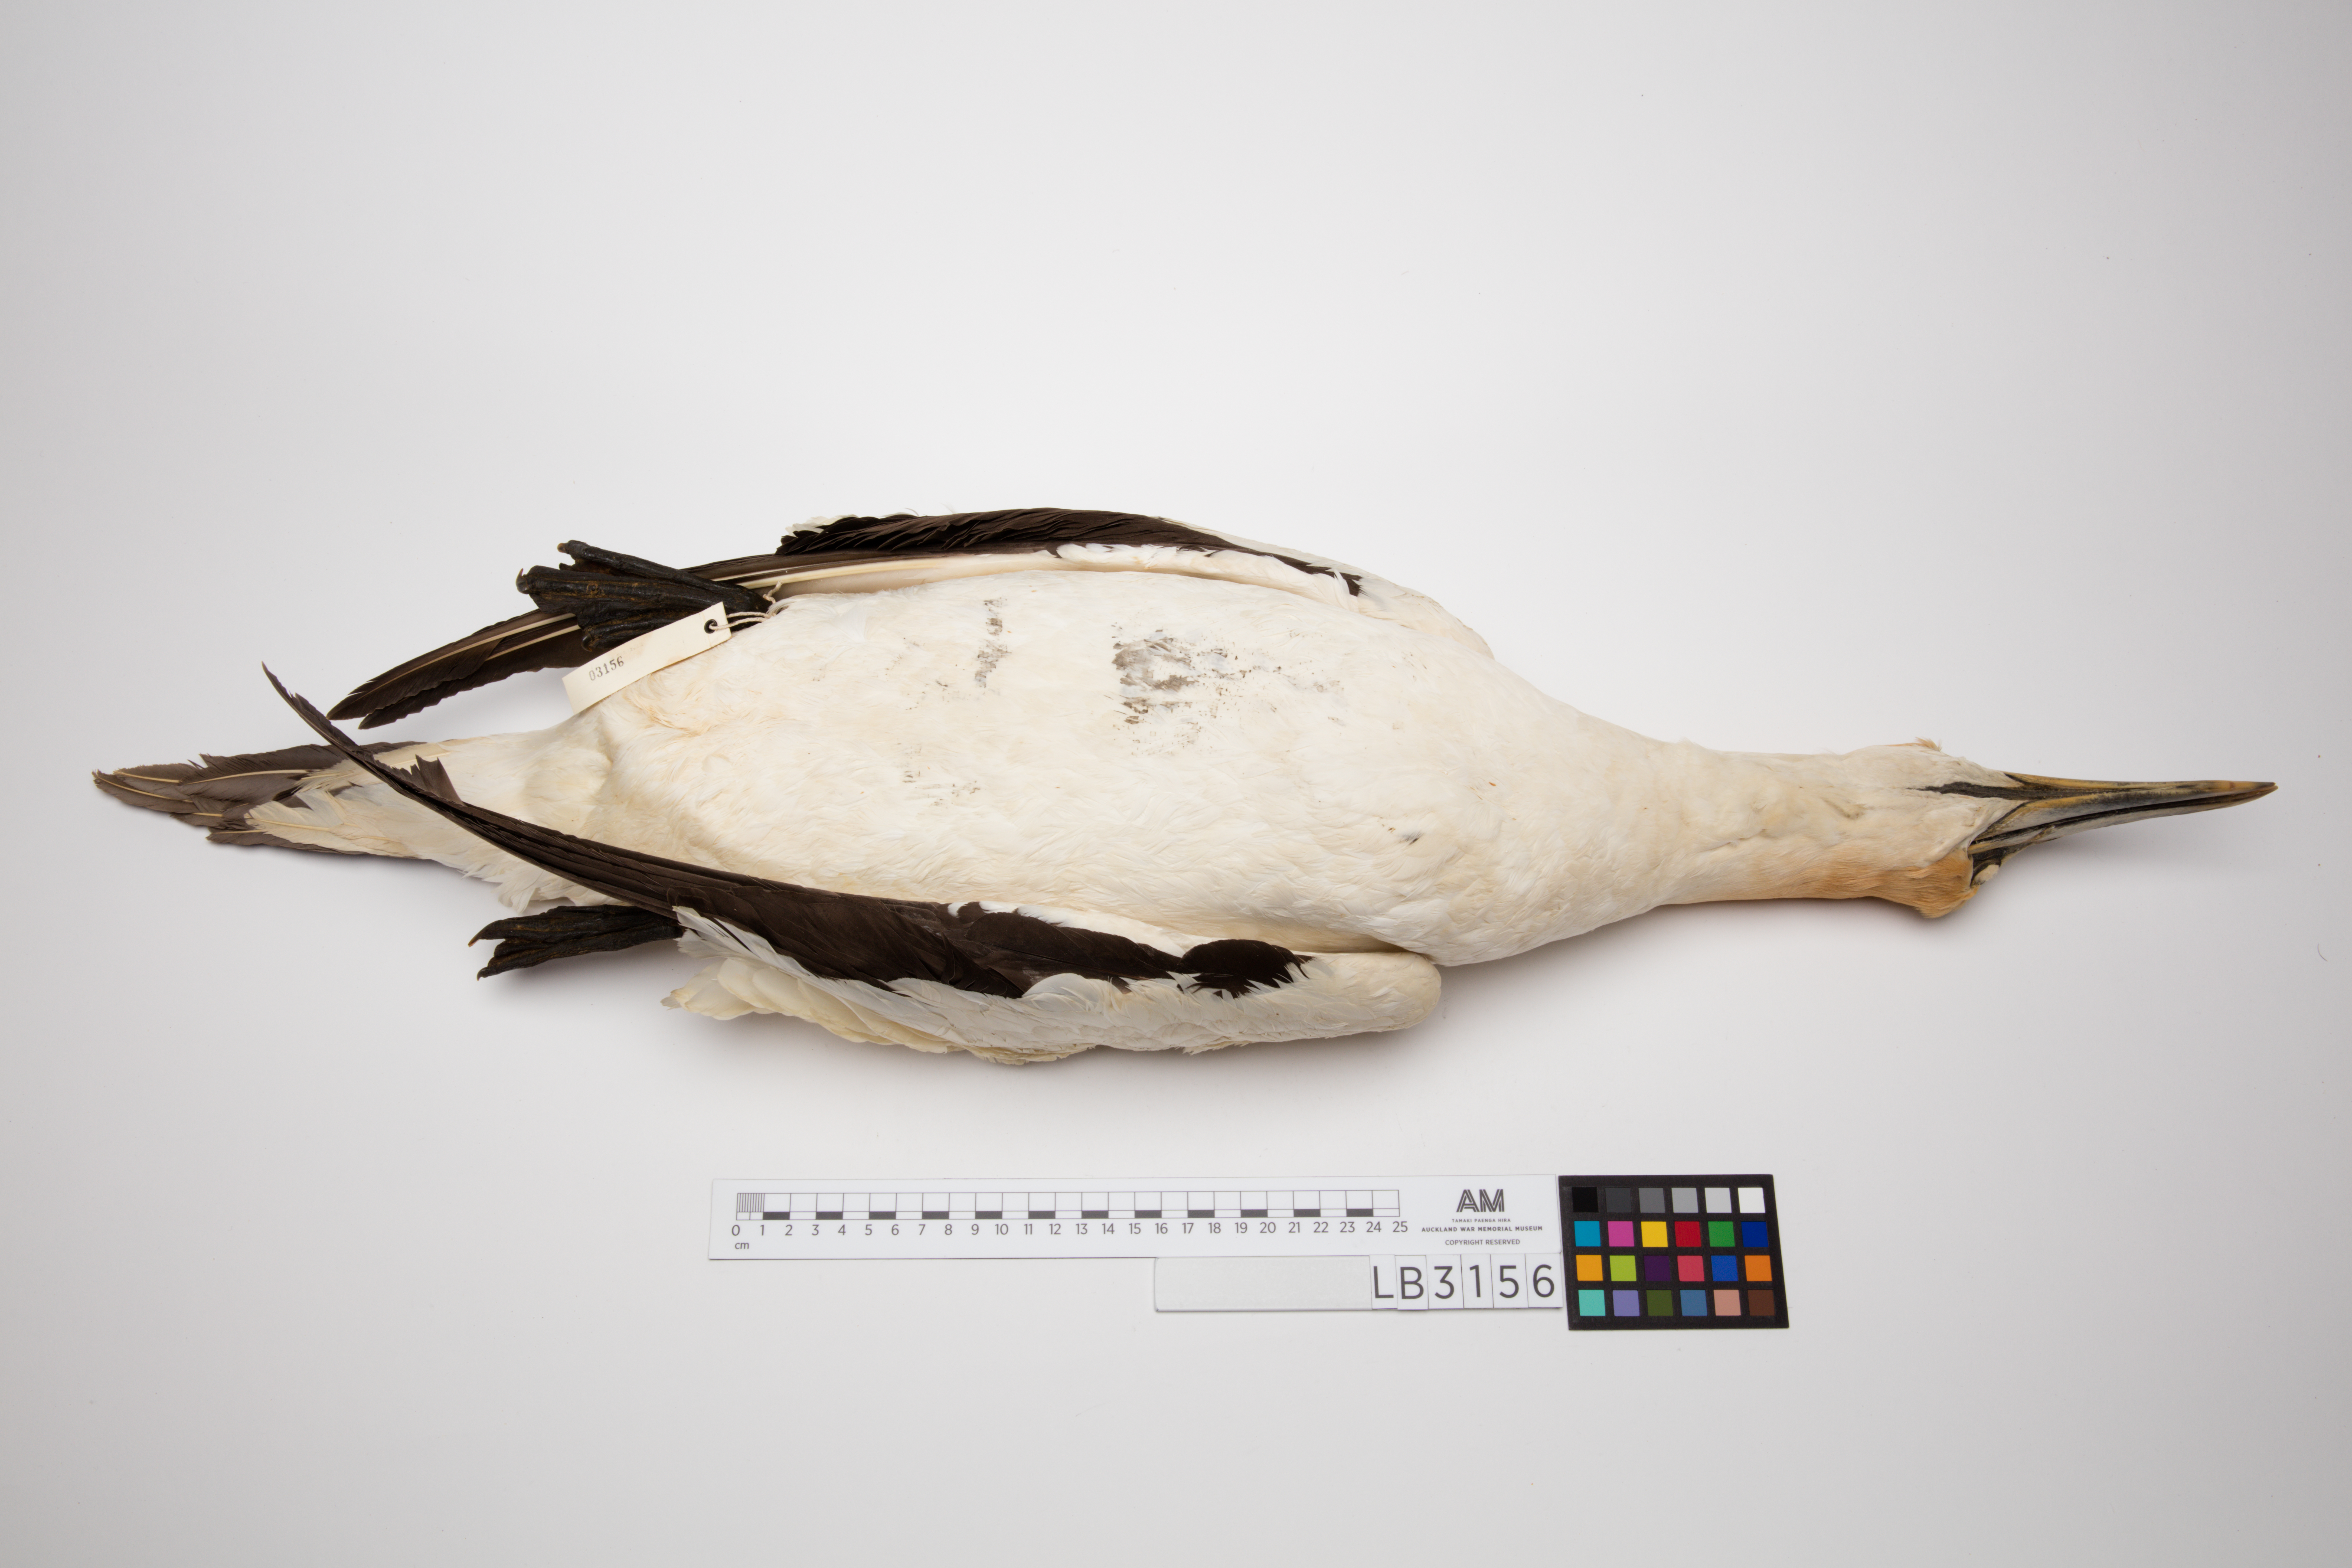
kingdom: Animalia
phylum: Chordata
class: Aves
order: Suliformes
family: Sulidae
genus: Morus
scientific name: Morus serrator
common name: Australasian gannet
